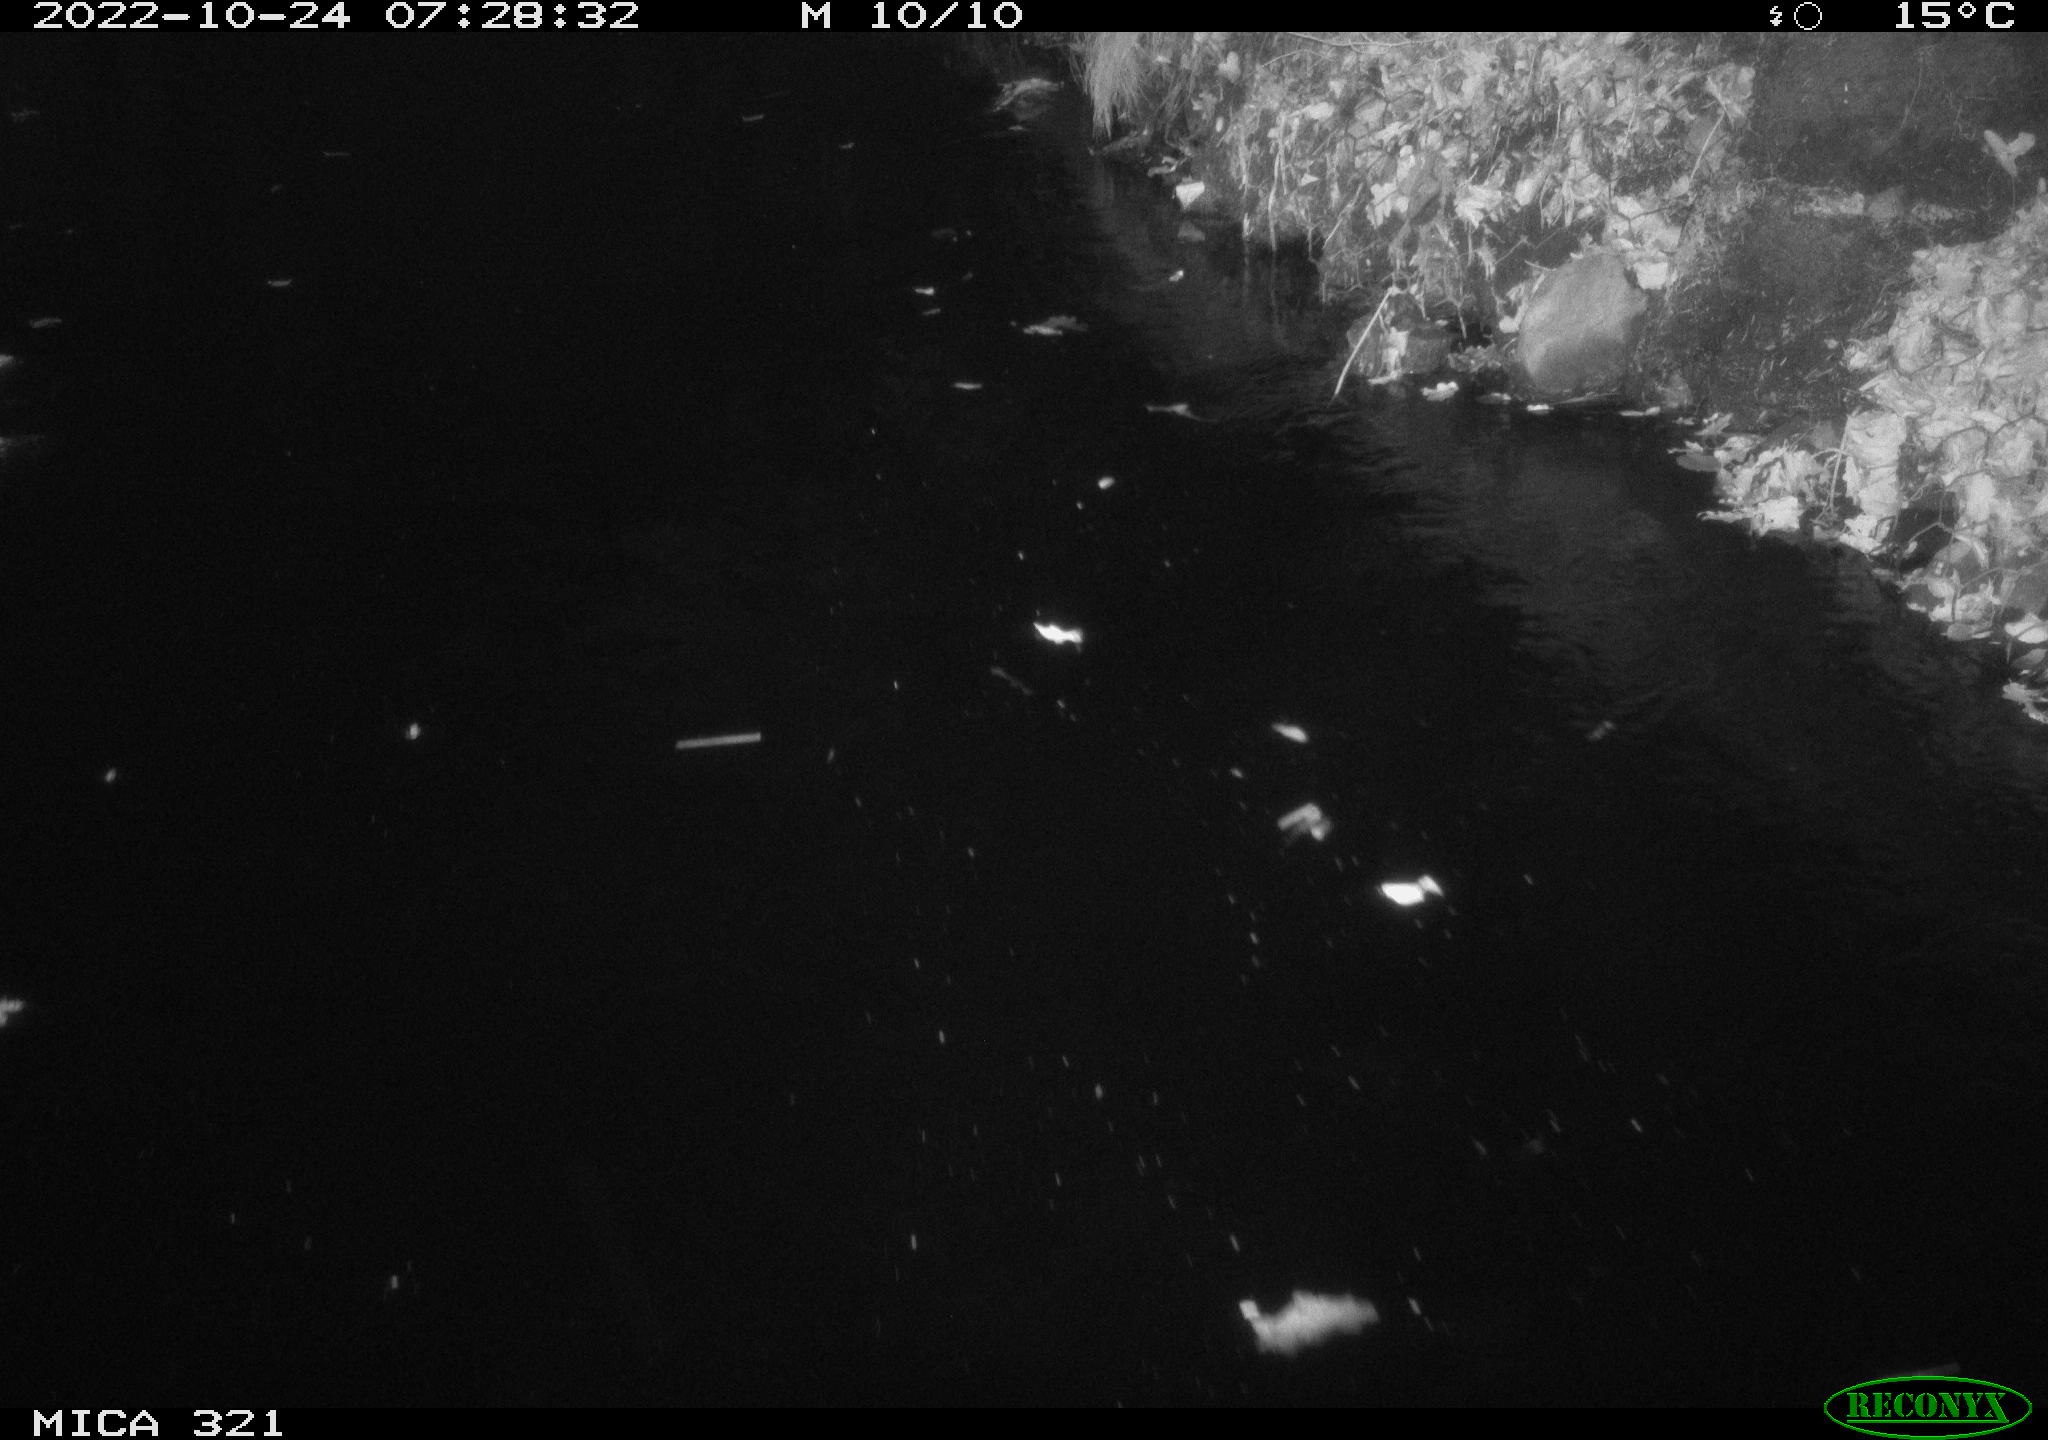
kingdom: Animalia
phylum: Chordata
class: Mammalia
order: Rodentia
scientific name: Rodentia
